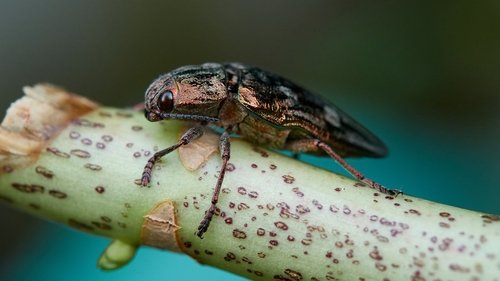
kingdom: Animalia
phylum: Arthropoda
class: Insecta
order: Coleoptera
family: Buprestidae
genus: Chalcophora
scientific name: Chalcophora massiliensis
